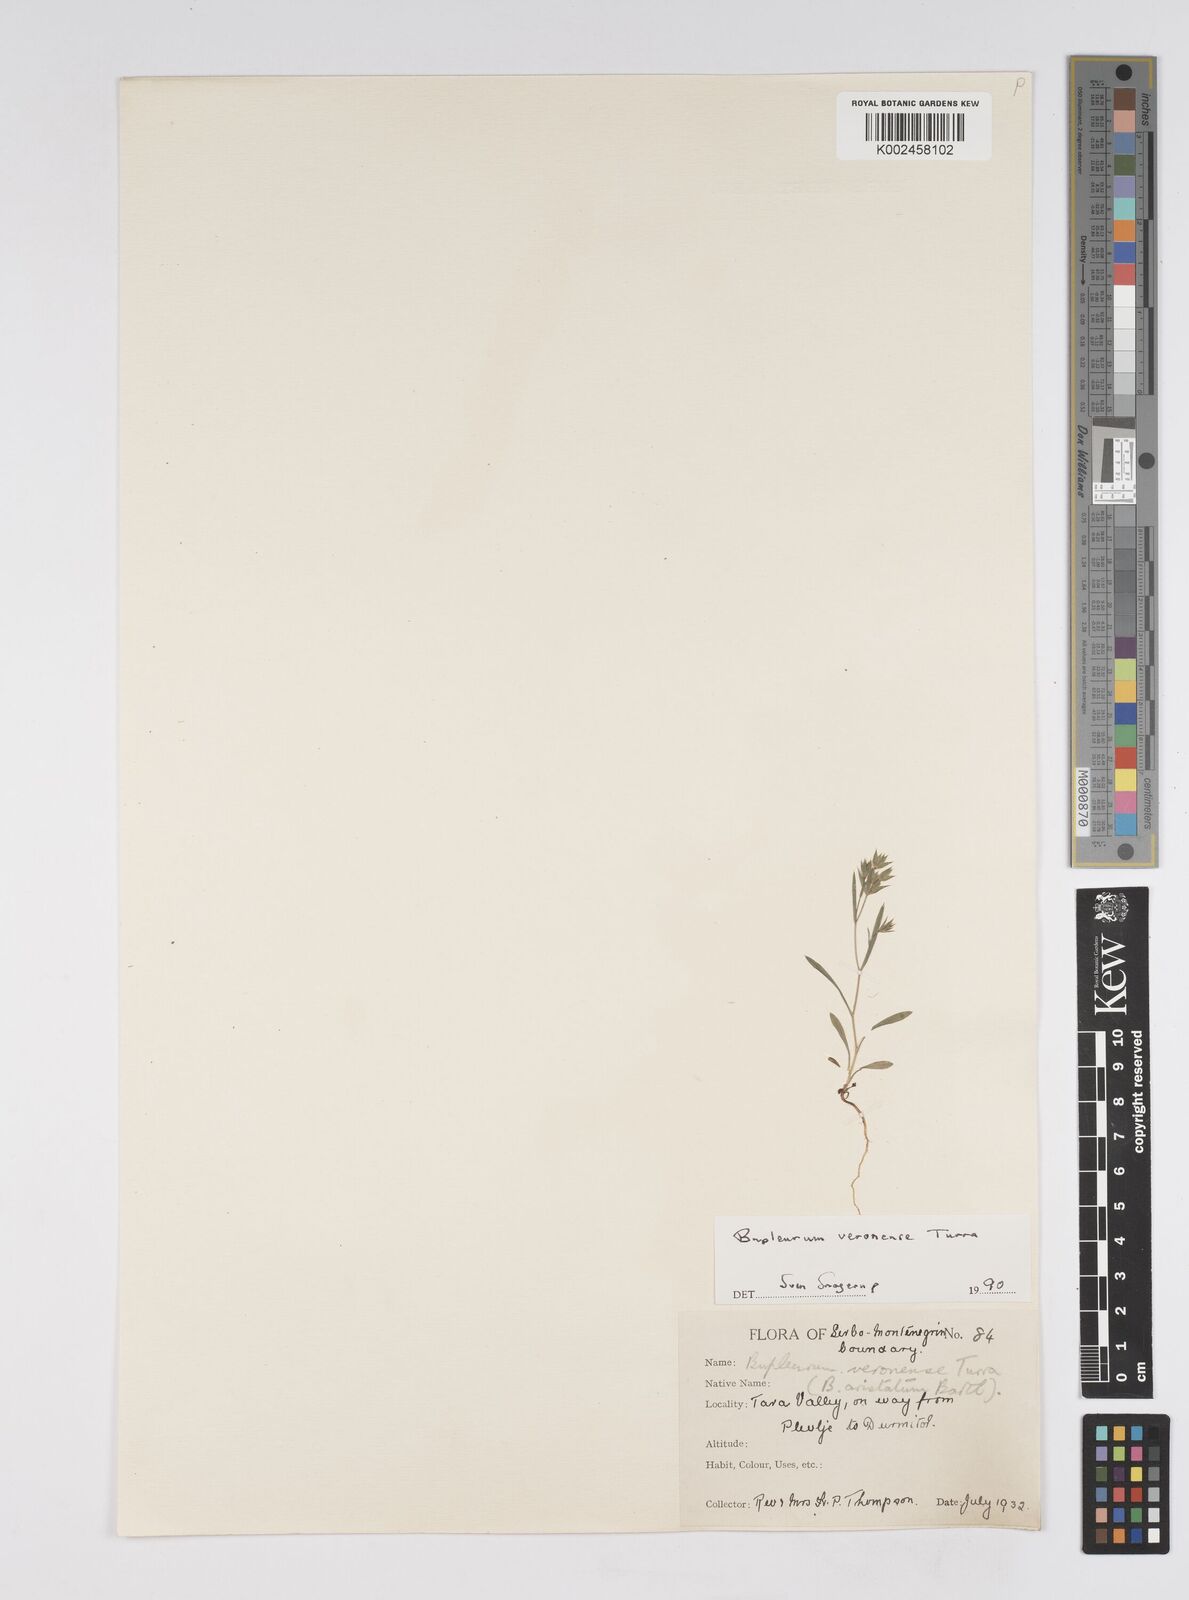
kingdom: Plantae
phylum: Tracheophyta
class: Magnoliopsida
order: Apiales
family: Apiaceae
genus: Bupleurum
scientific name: Bupleurum baldense
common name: Small hare's-ear
